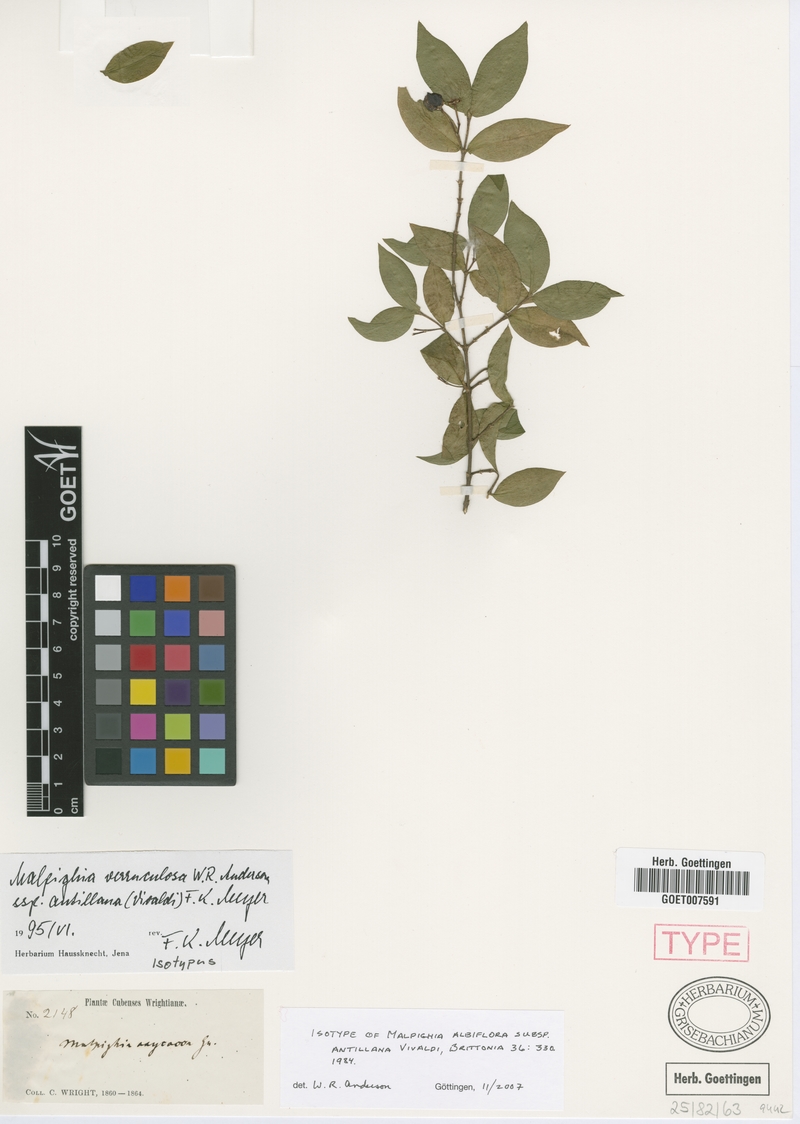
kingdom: Plantae
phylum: Tracheophyta
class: Magnoliopsida
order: Malpighiales
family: Malpighiaceae
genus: Malpighia
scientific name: Malpighia verruculosa
